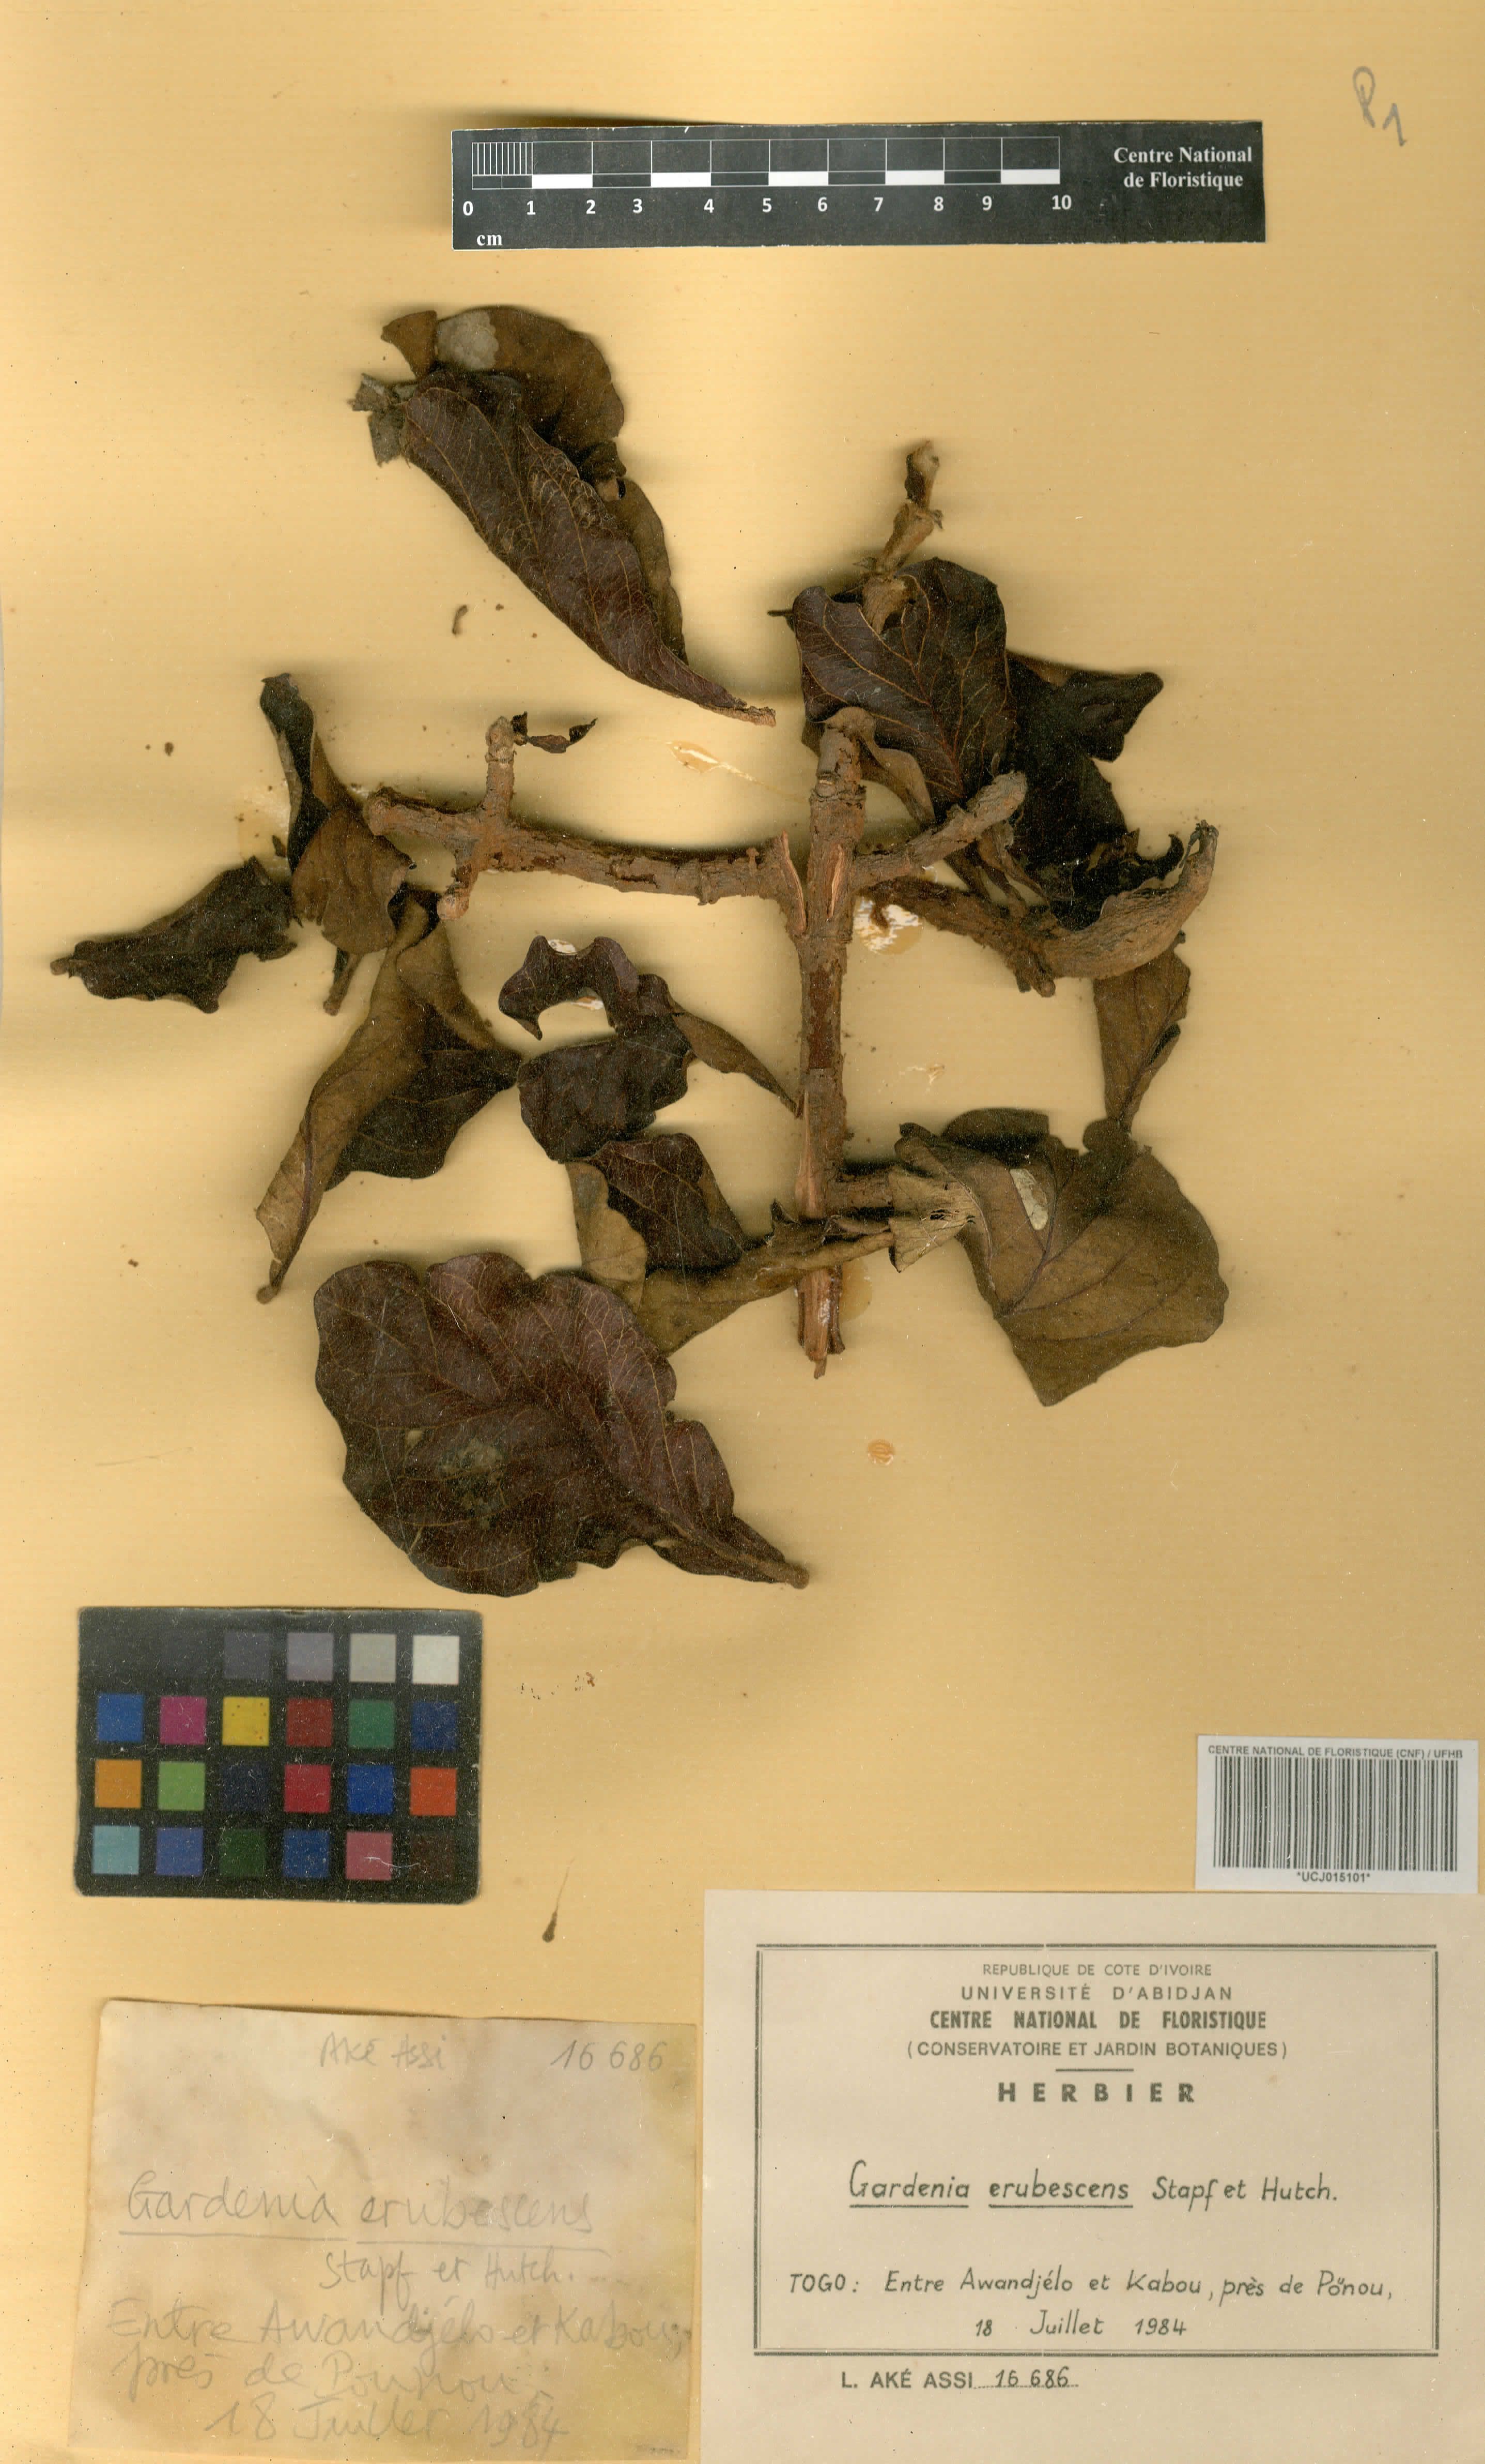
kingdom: Plantae
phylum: Tracheophyta
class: Magnoliopsida
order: Gentianales
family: Rubiaceae
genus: Gardenia
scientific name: Gardenia erubescens
